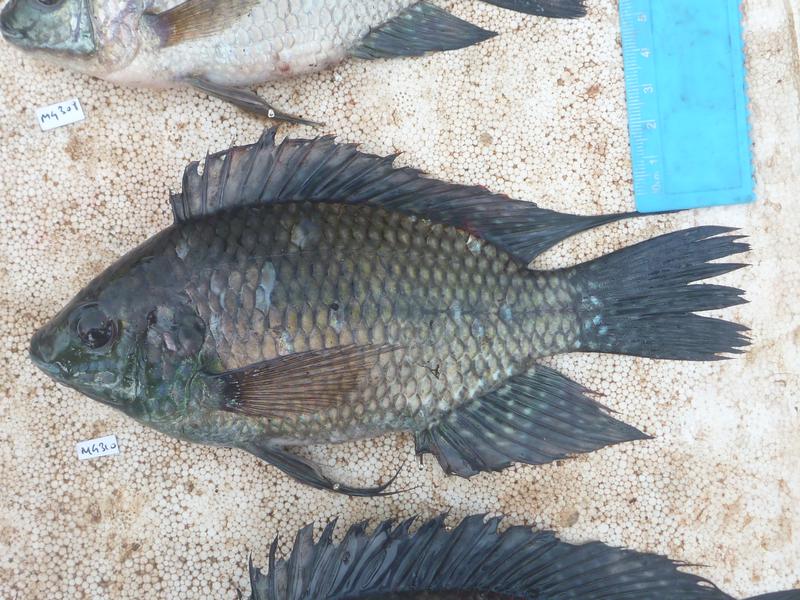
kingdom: Animalia
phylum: Chordata
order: Perciformes
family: Cichlidae
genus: Oreochromis
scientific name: Oreochromis leucostictus
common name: Blue spotted tilapia
